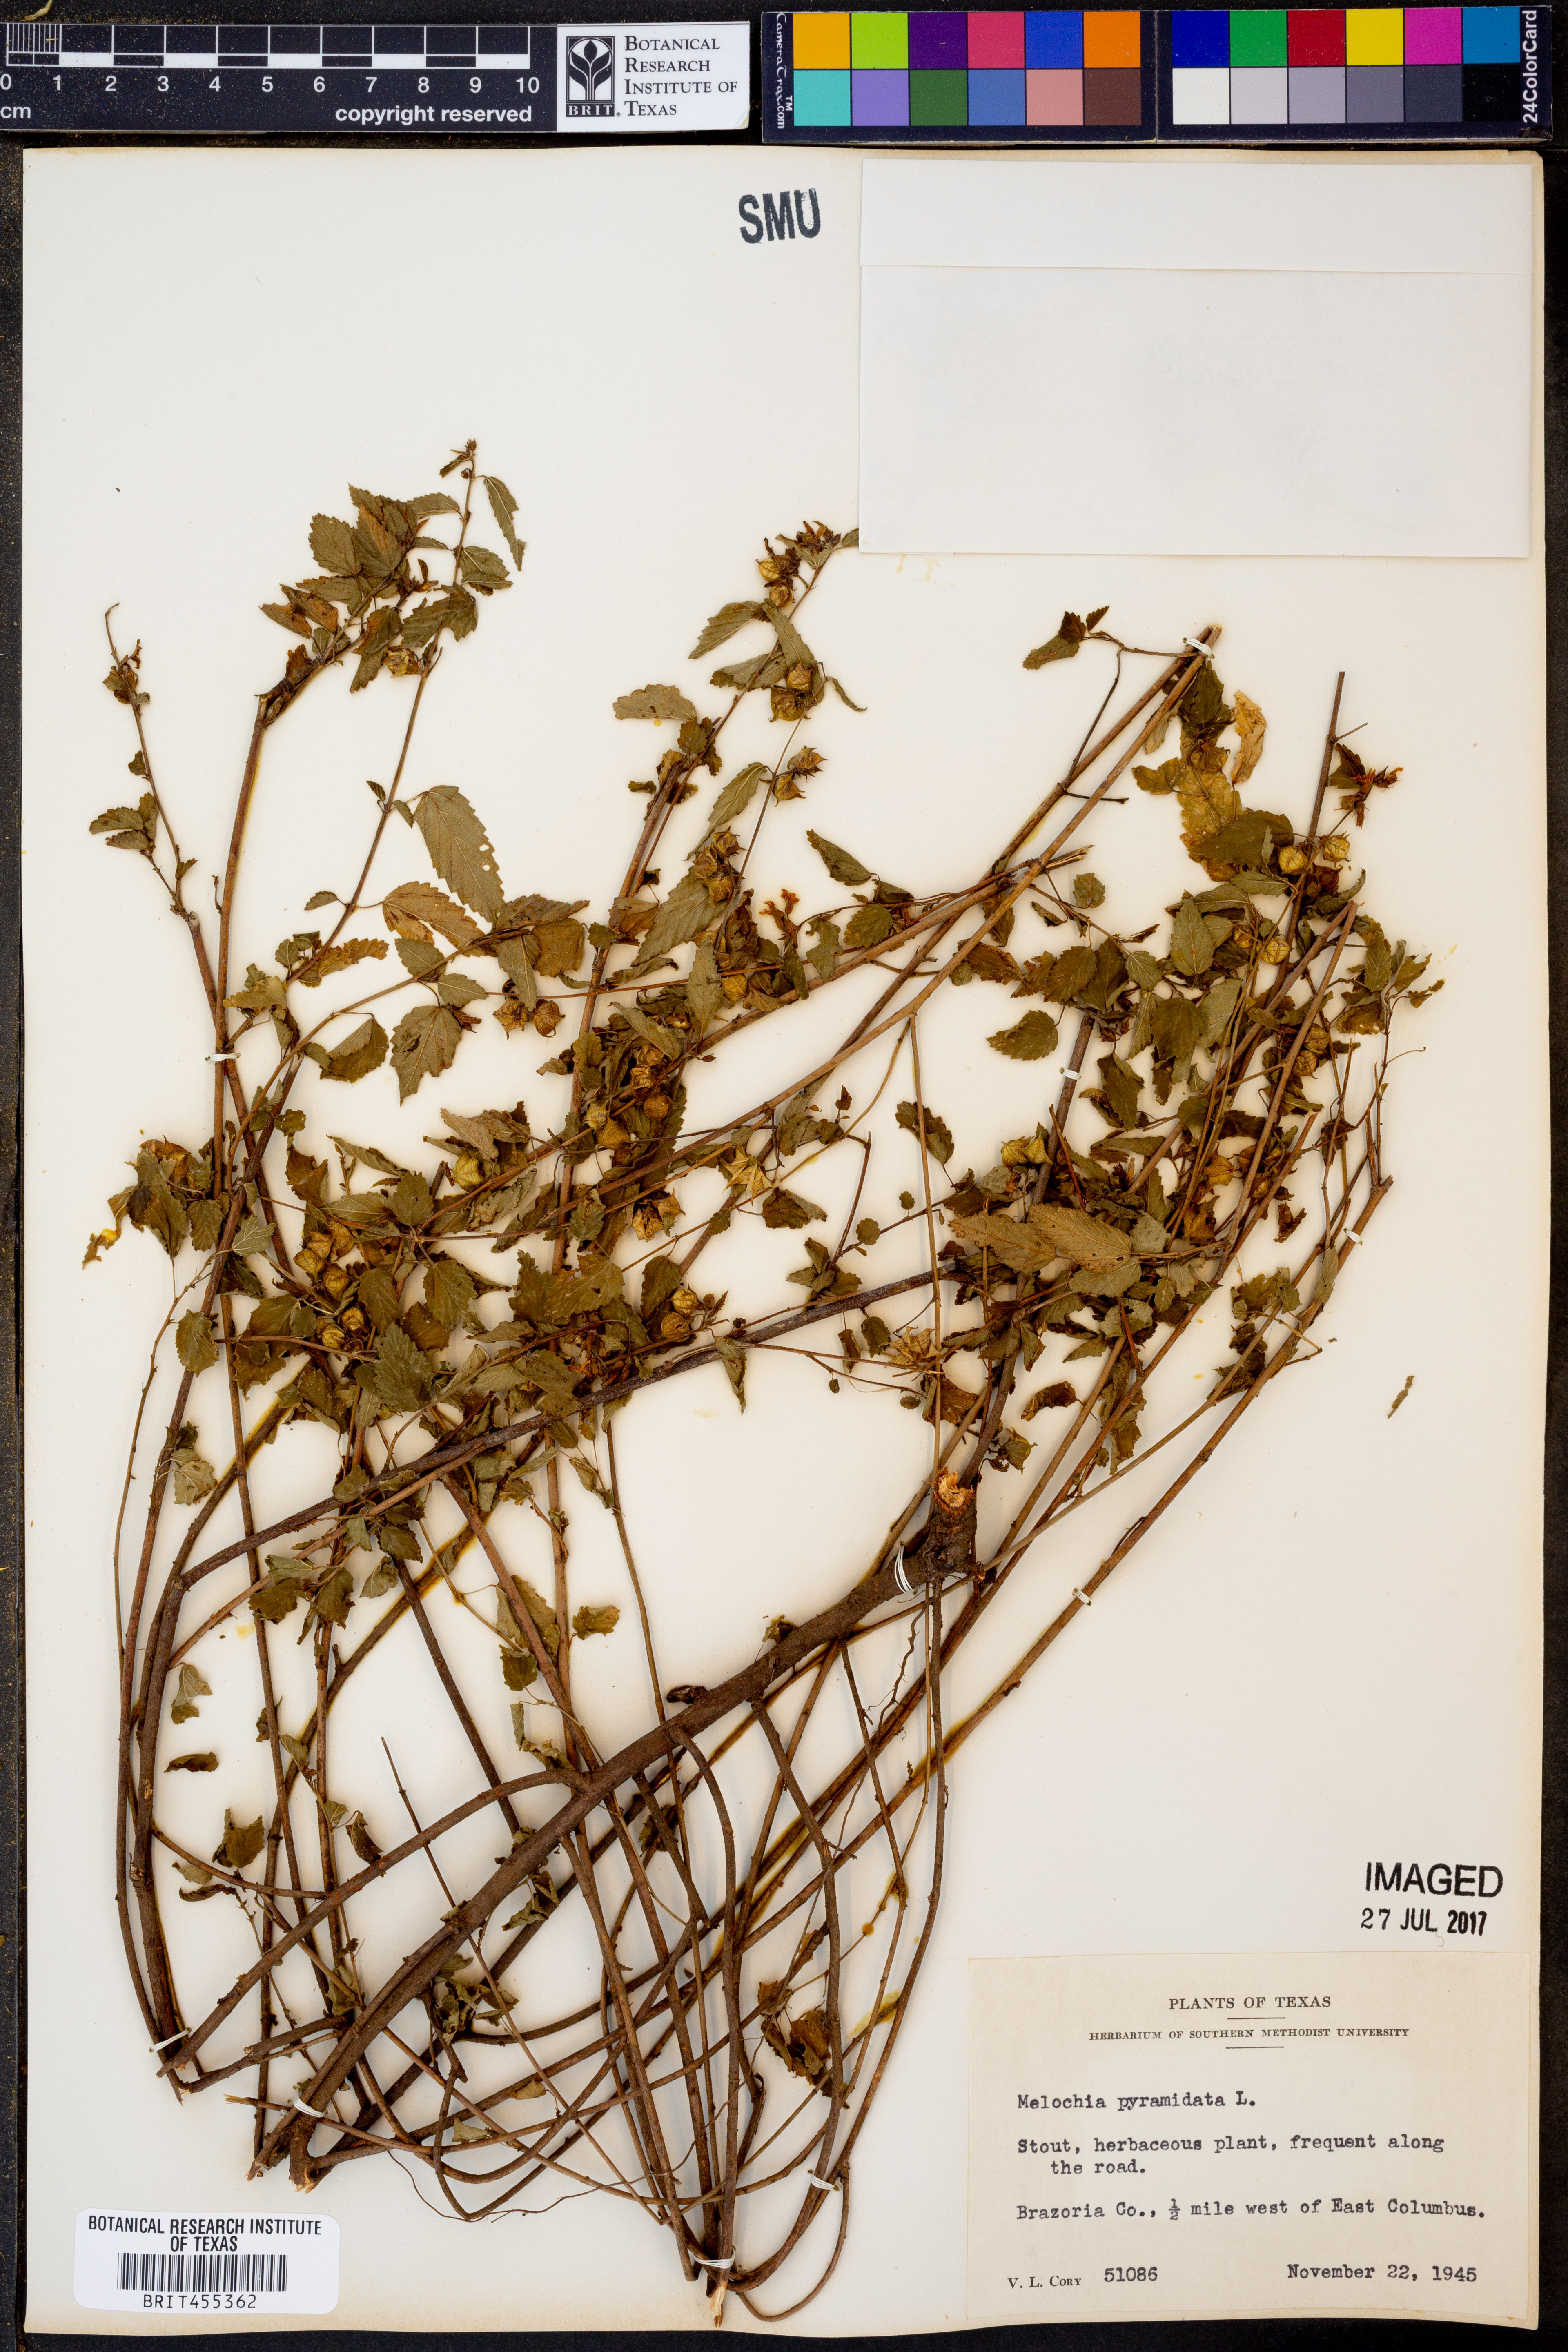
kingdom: Plantae
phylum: Tracheophyta
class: Magnoliopsida
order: Malvales
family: Malvaceae
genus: Melochia
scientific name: Melochia pyramidata
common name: Pyramidflower
